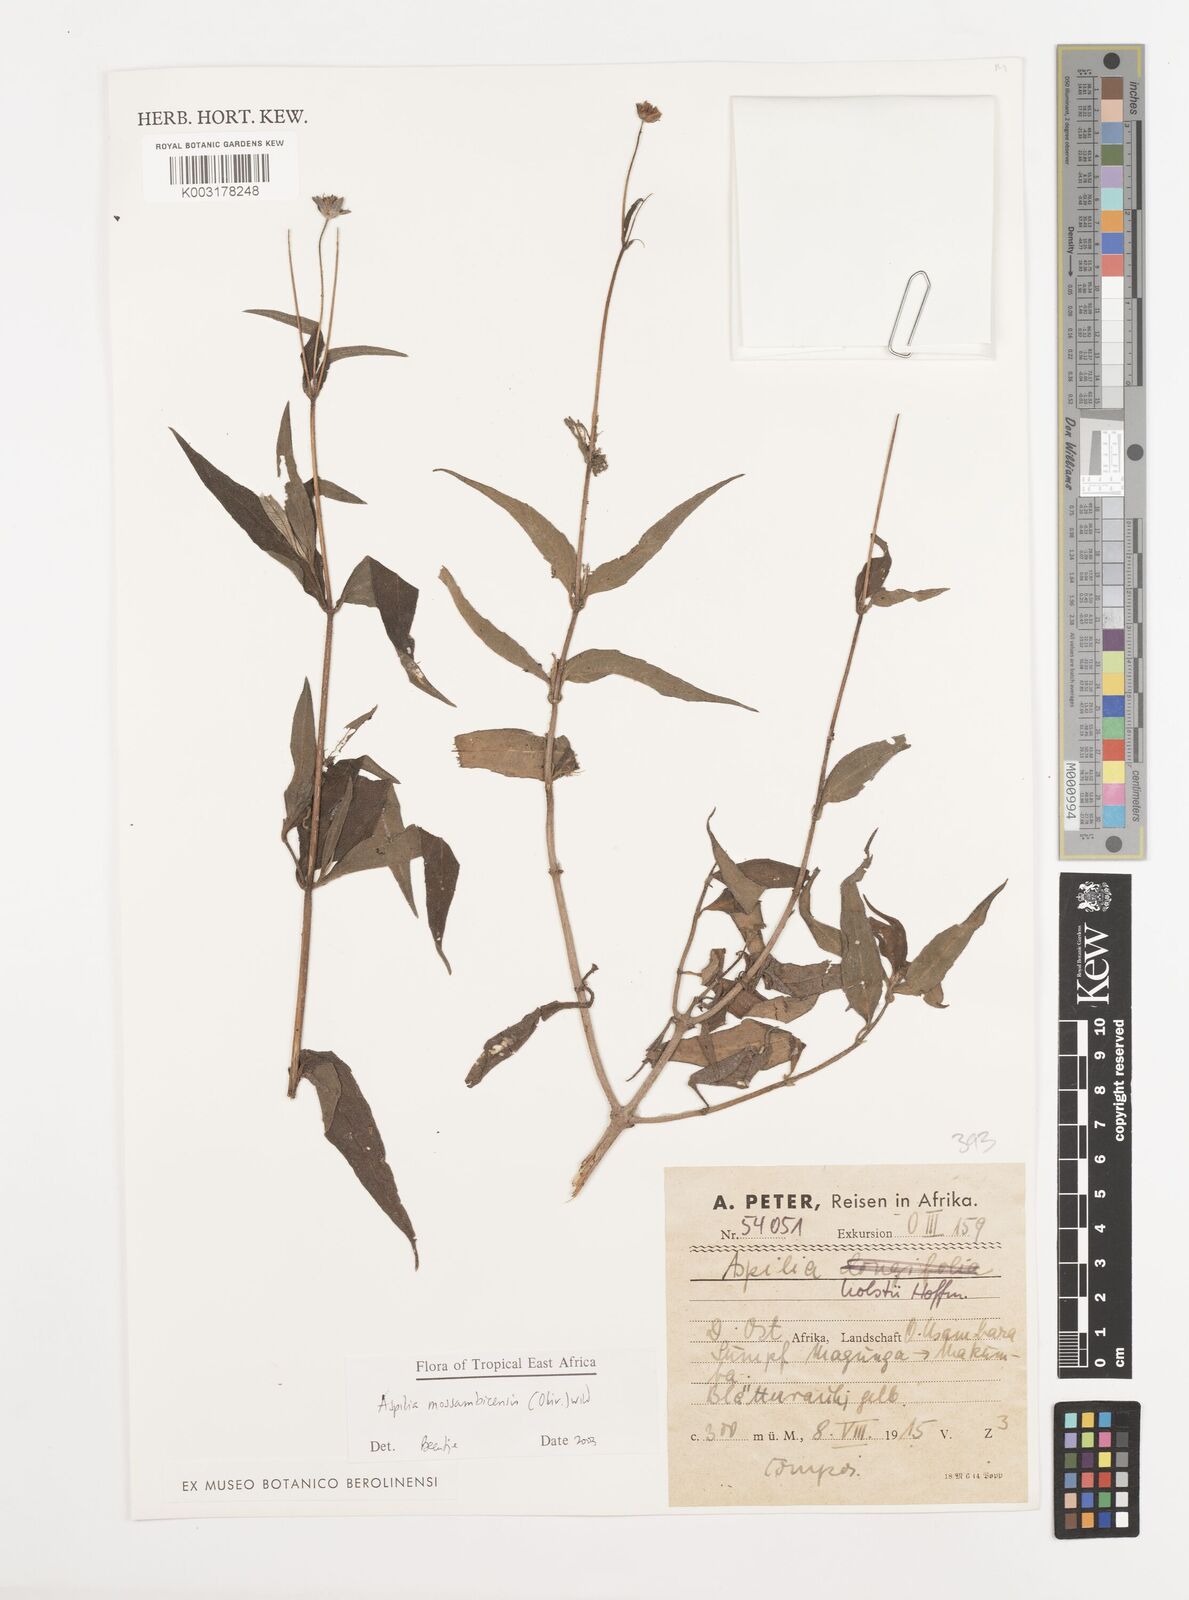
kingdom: Plantae
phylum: Tracheophyta
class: Magnoliopsida
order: Asterales
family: Asteraceae
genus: Aspilia
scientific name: Aspilia mossambicensis
